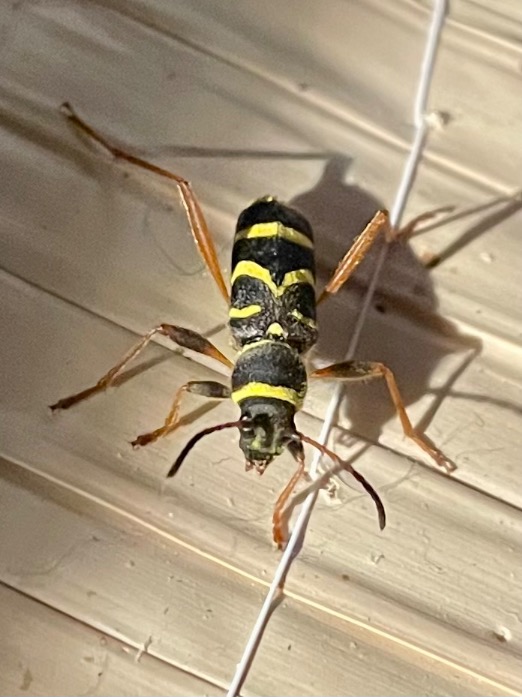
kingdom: Animalia
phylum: Arthropoda
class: Insecta
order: Coleoptera
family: Cerambycidae
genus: Clytus
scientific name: Clytus arietis
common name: Lille hvepsebuk
